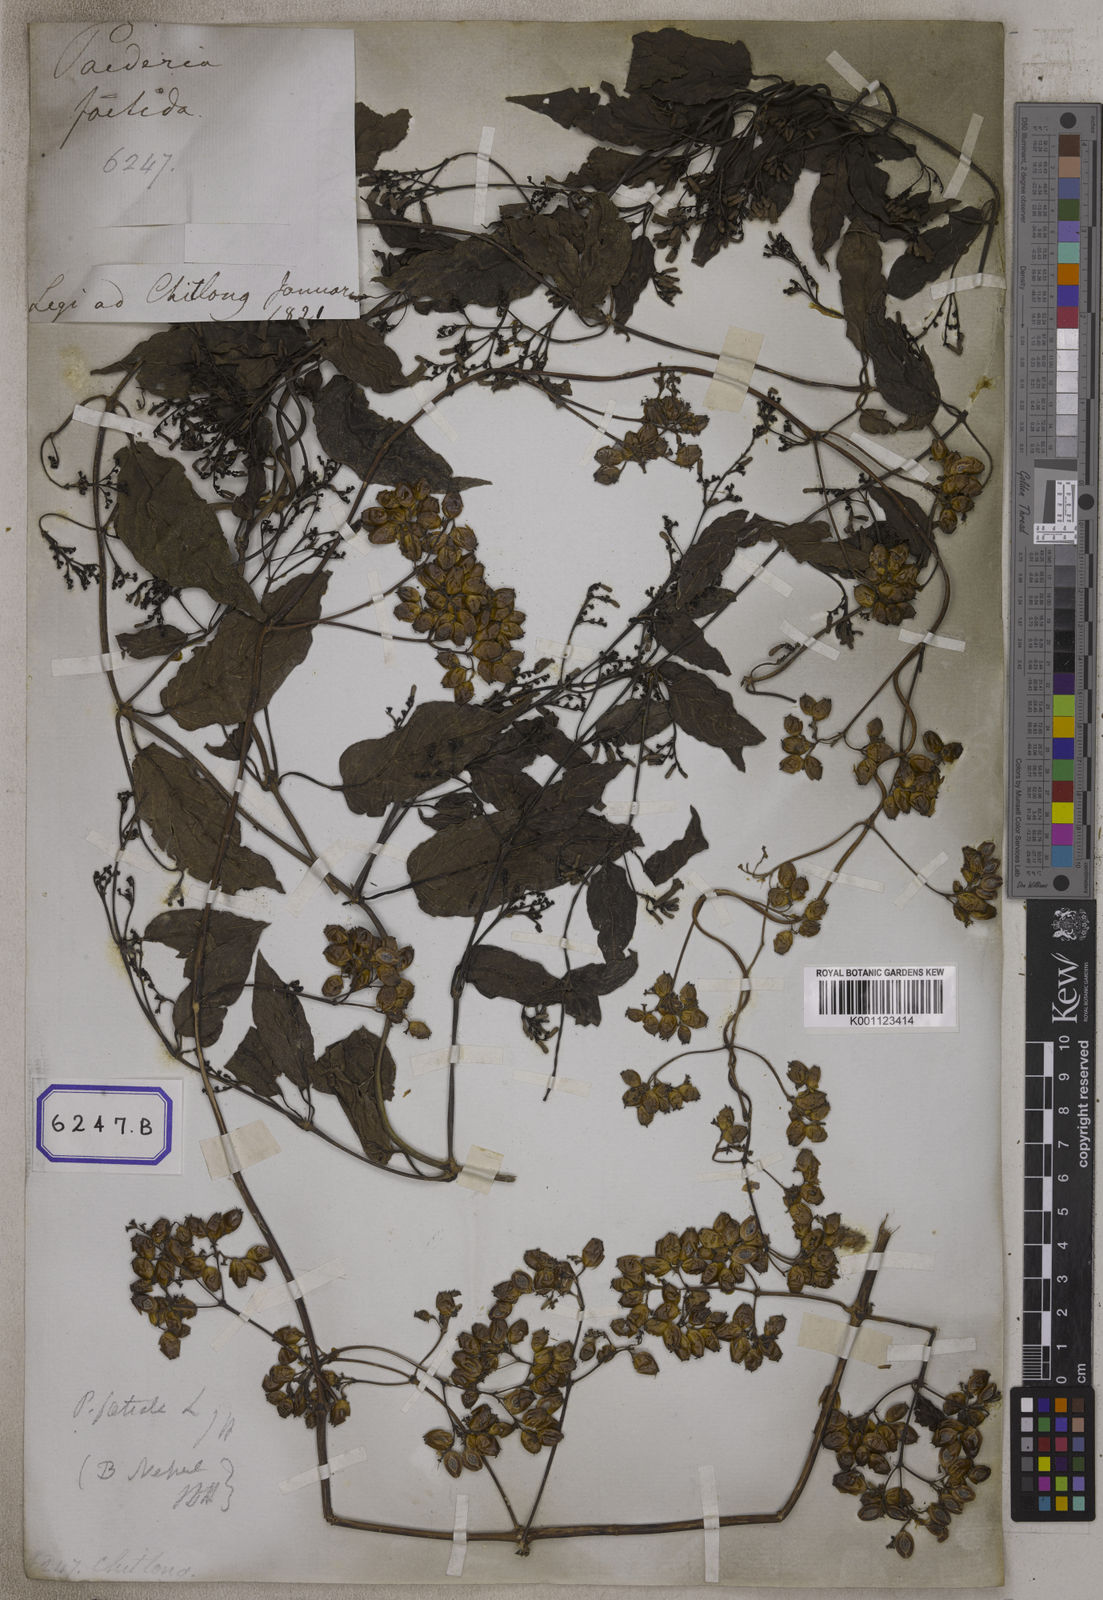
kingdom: Plantae
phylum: Tracheophyta
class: Magnoliopsida
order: Gentianales
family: Rubiaceae
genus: Paederia
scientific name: Paederia
